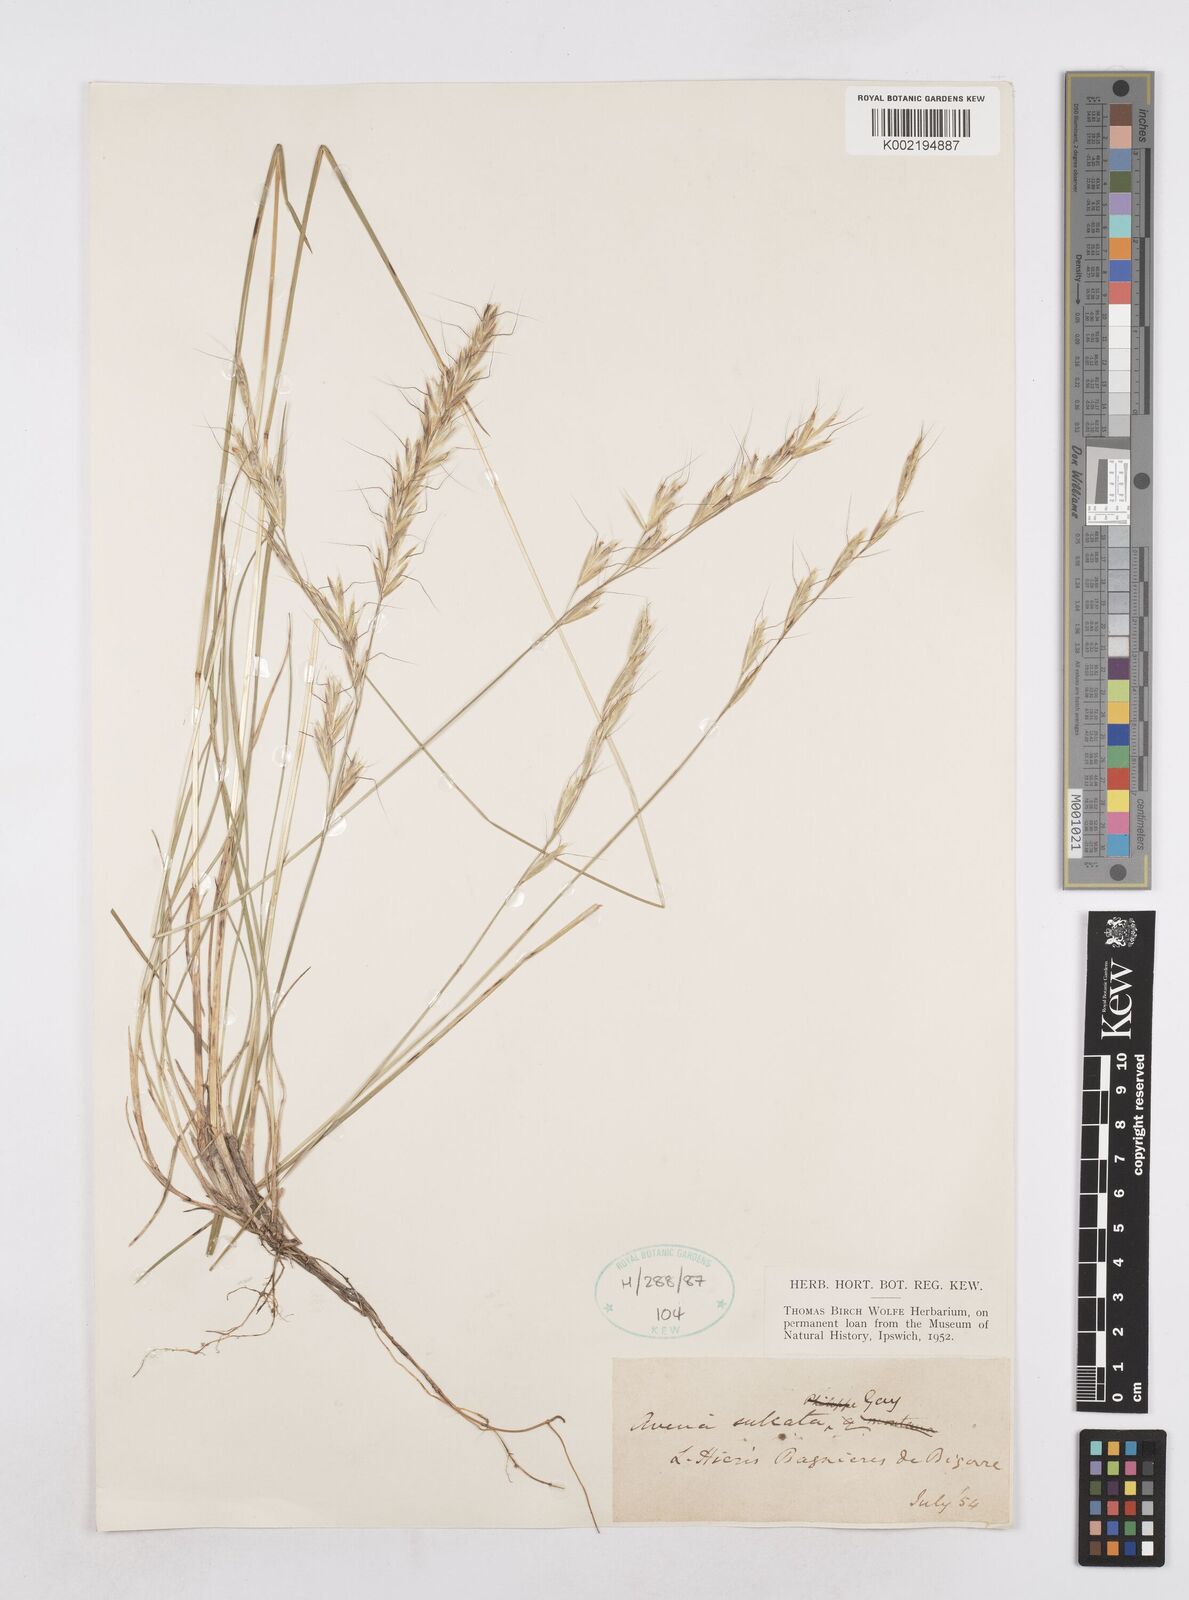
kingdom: Plantae
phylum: Tracheophyta
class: Liliopsida
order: Poales
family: Poaceae
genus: Helictotrichon
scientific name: Helictotrichon
